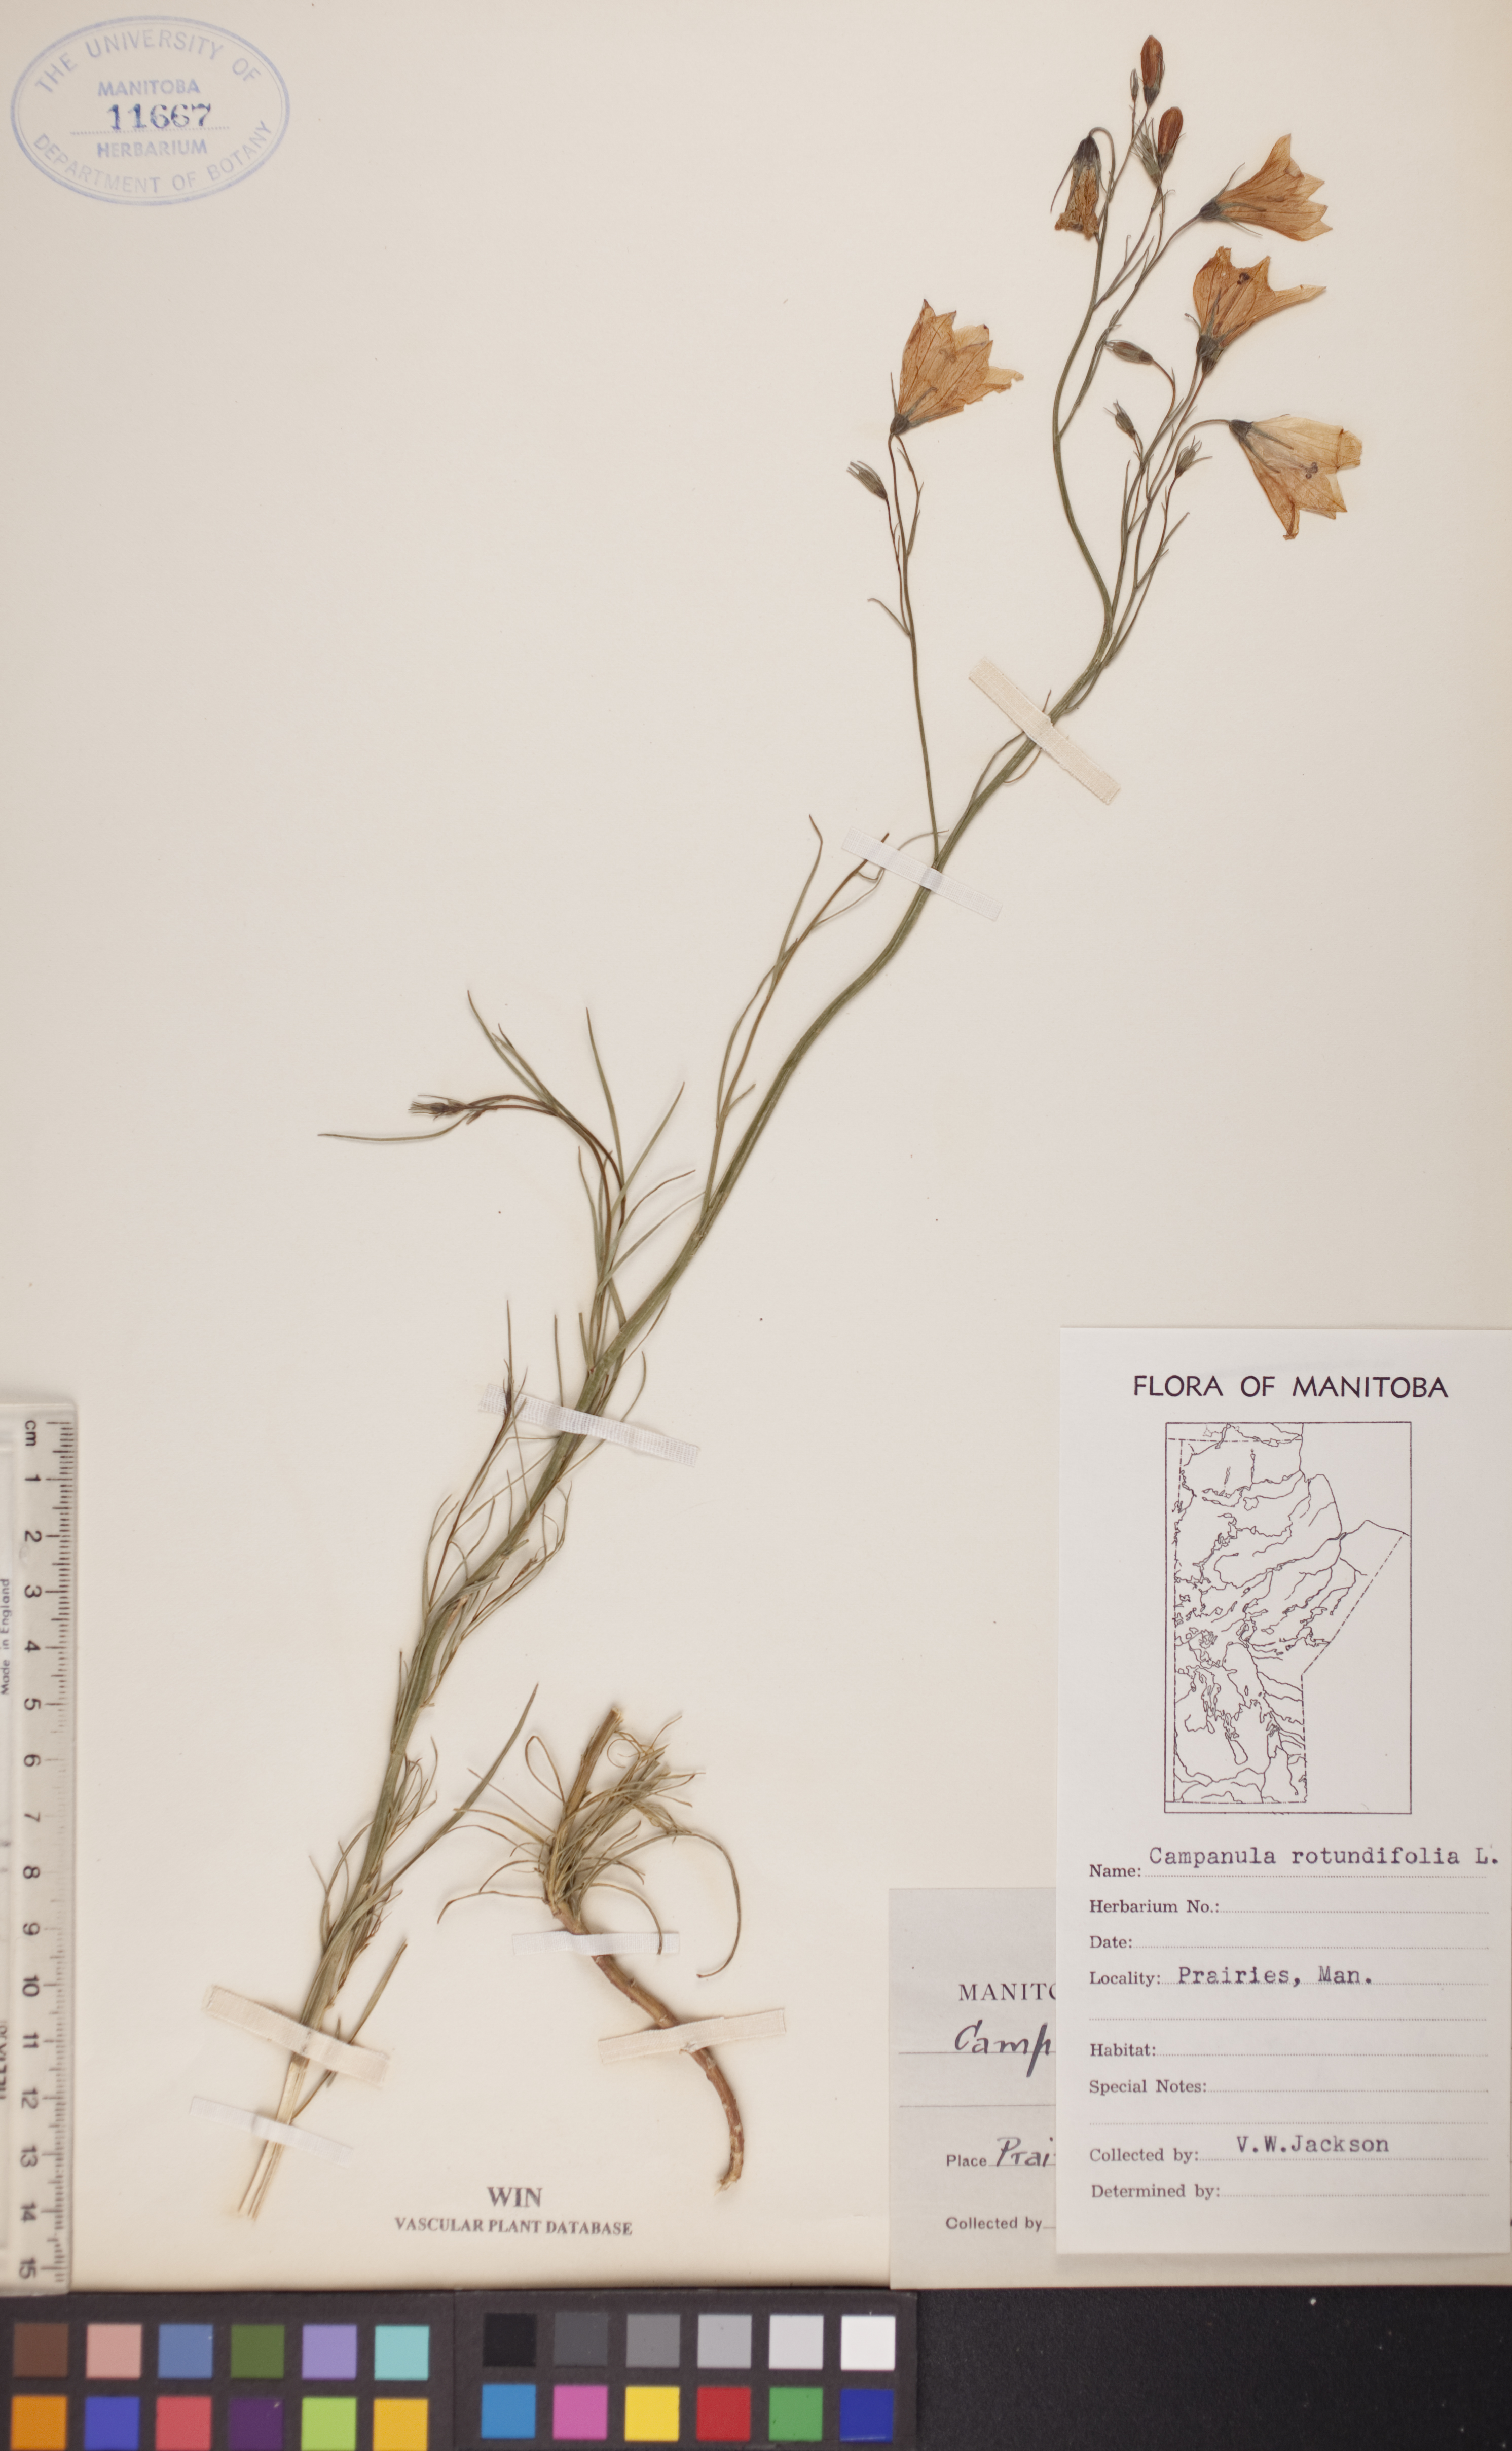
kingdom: Plantae
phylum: Tracheophyta
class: Magnoliopsida
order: Asterales
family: Campanulaceae
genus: Campanula
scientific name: Campanula rotundifolia
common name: Harebell
